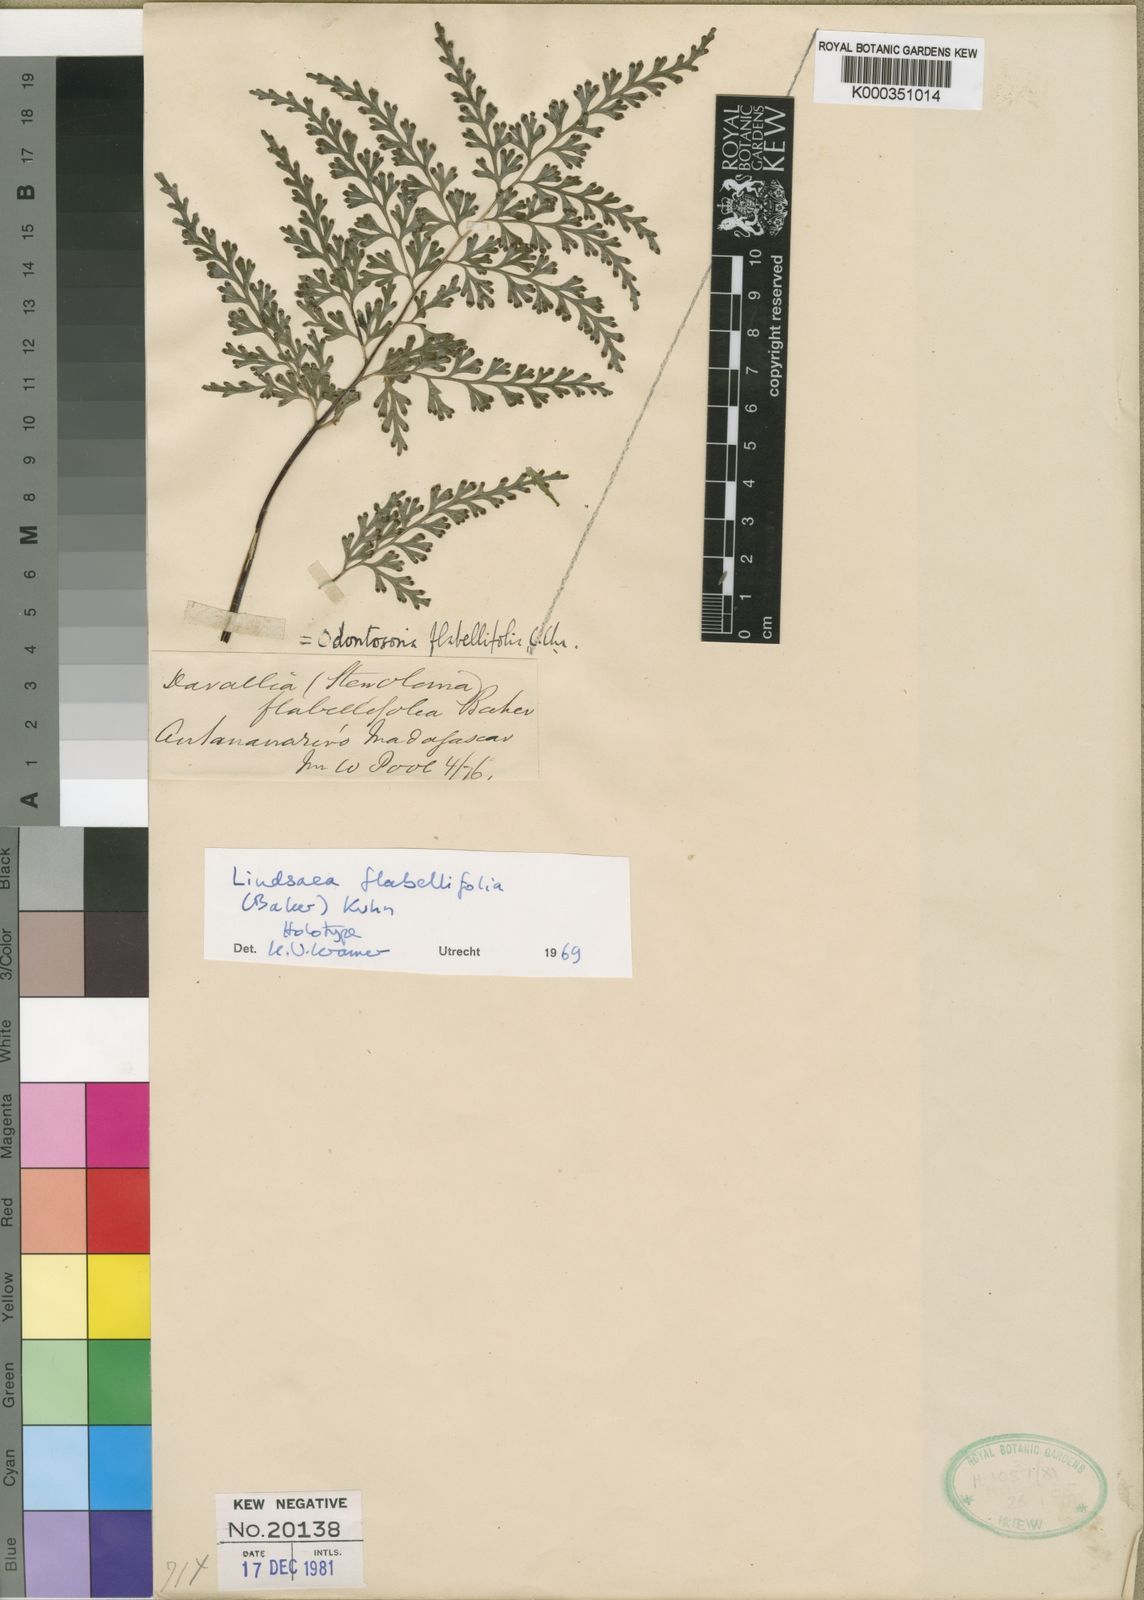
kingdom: Plantae
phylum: Tracheophyta
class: Polypodiopsida
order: Polypodiales
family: Lindsaeaceae
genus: Odontosoria
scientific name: Odontosoria flabellifolia
